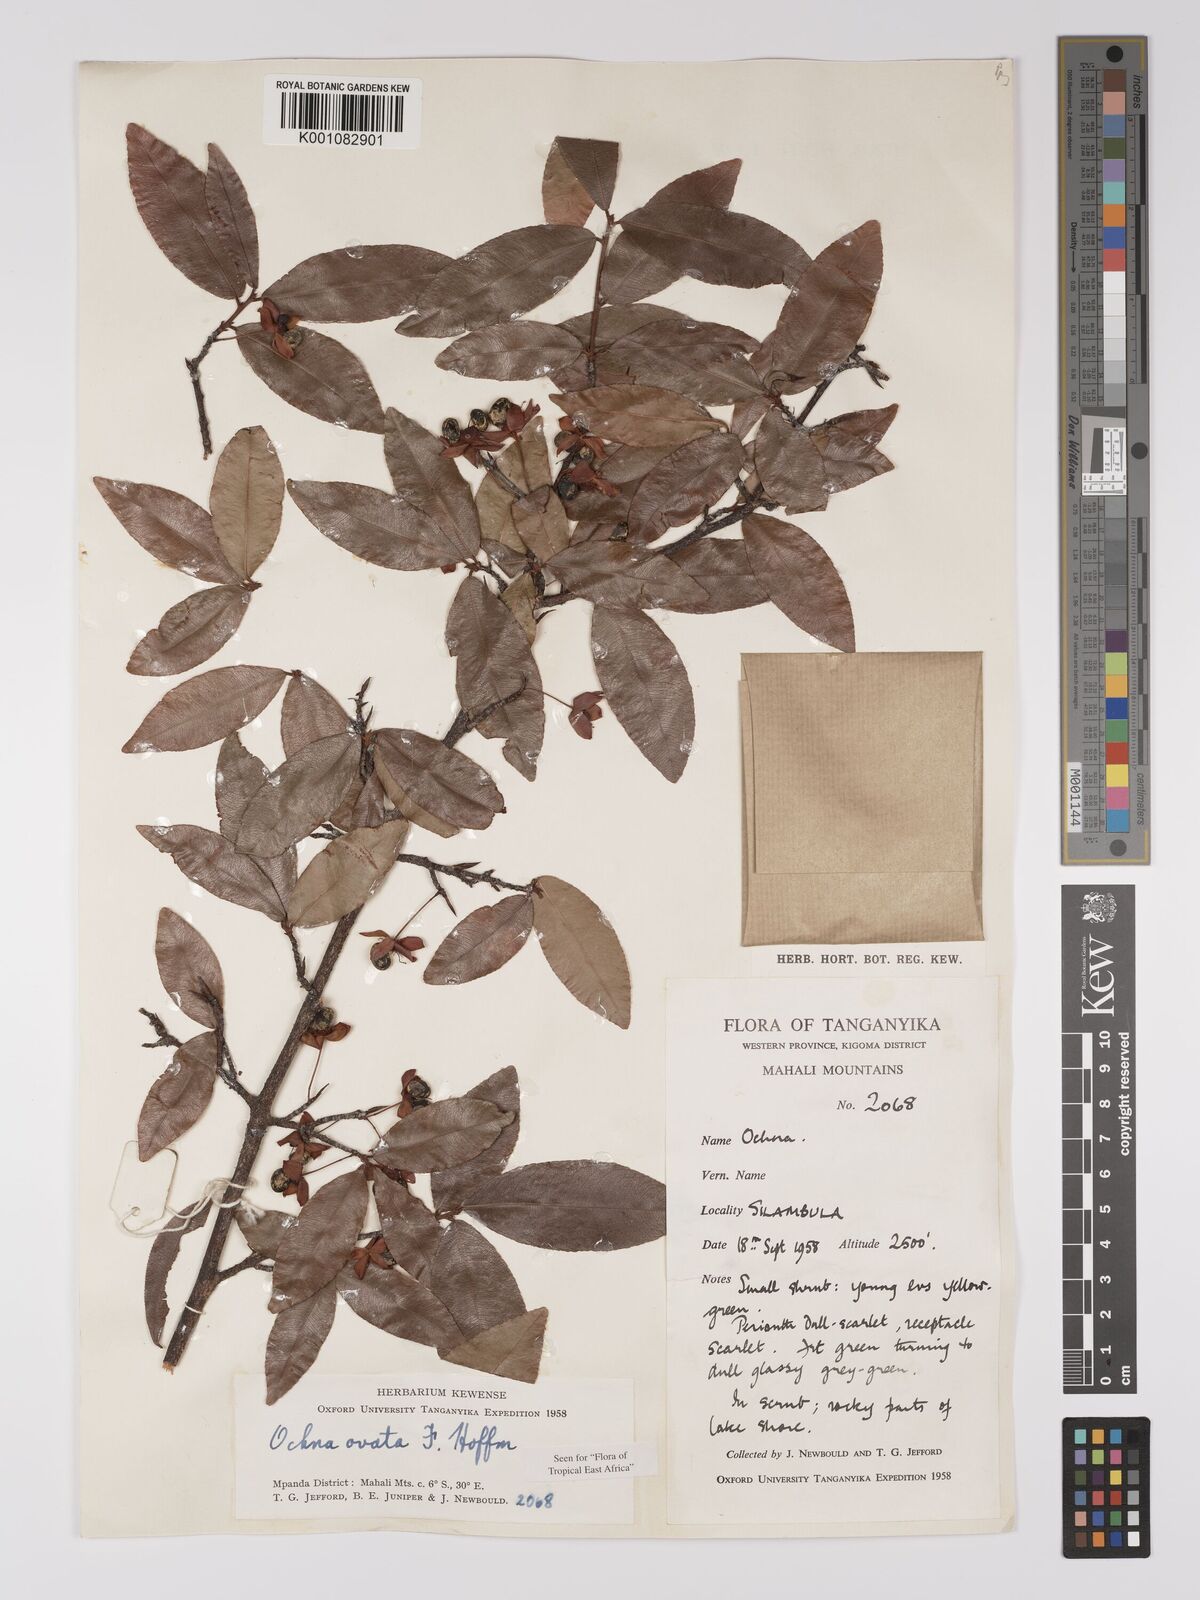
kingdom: Plantae
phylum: Tracheophyta
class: Magnoliopsida
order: Malpighiales
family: Ochnaceae
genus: Ochna
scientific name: Ochna ovata
